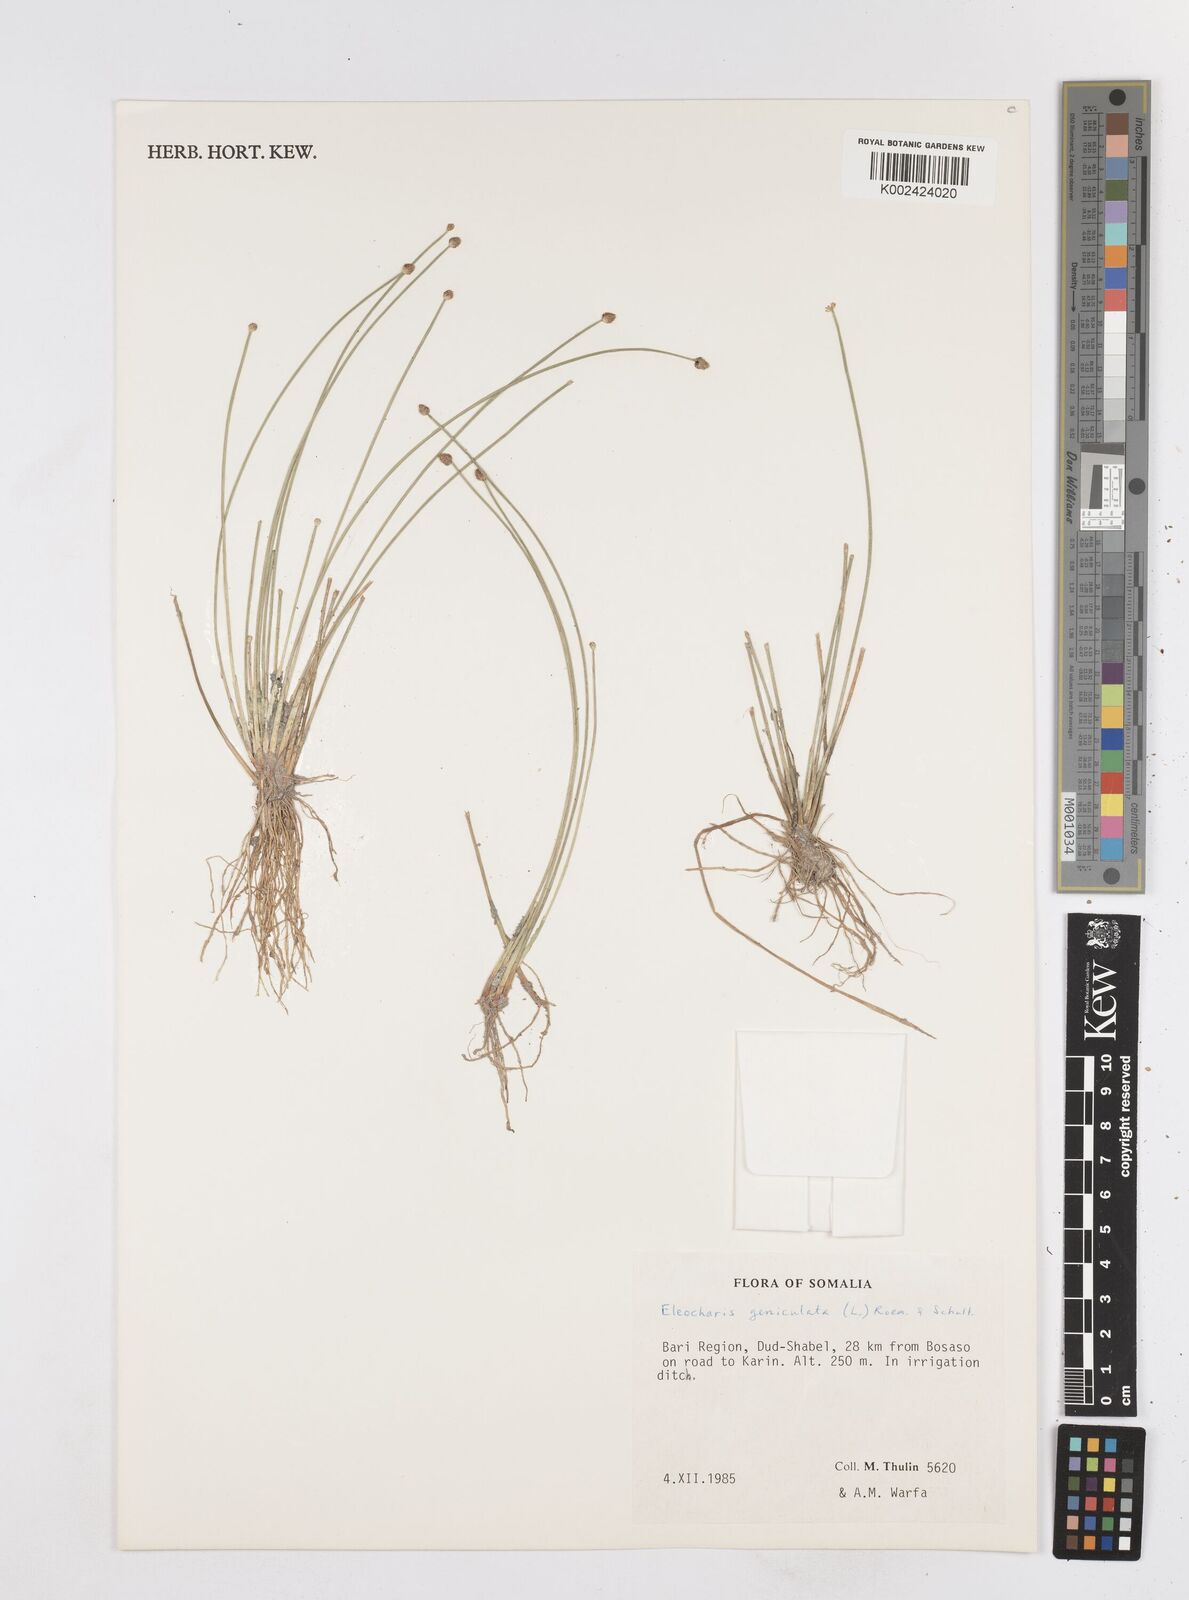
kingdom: Plantae
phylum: Tracheophyta
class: Liliopsida
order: Poales
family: Cyperaceae
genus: Eleocharis
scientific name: Eleocharis geniculata
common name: Canada spikesedge
